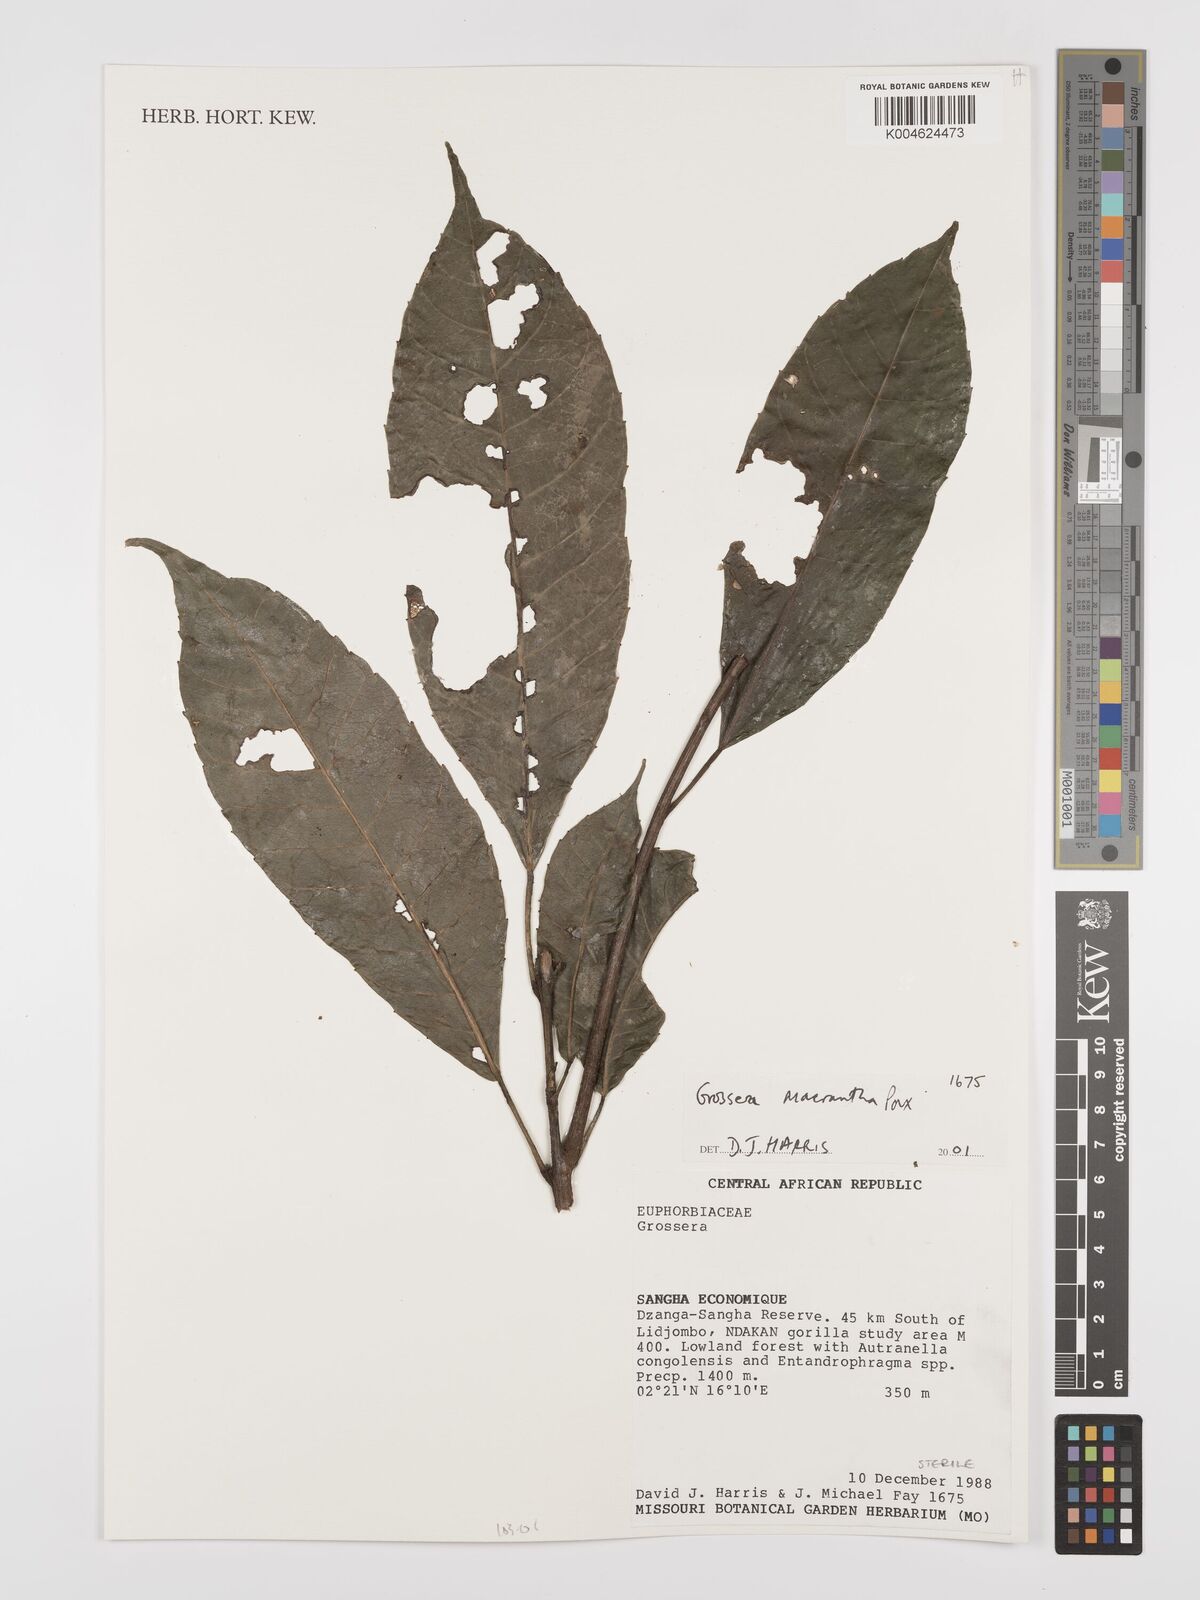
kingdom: Plantae
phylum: Tracheophyta
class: Magnoliopsida
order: Malpighiales
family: Euphorbiaceae
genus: Grossera
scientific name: Grossera macrantha
